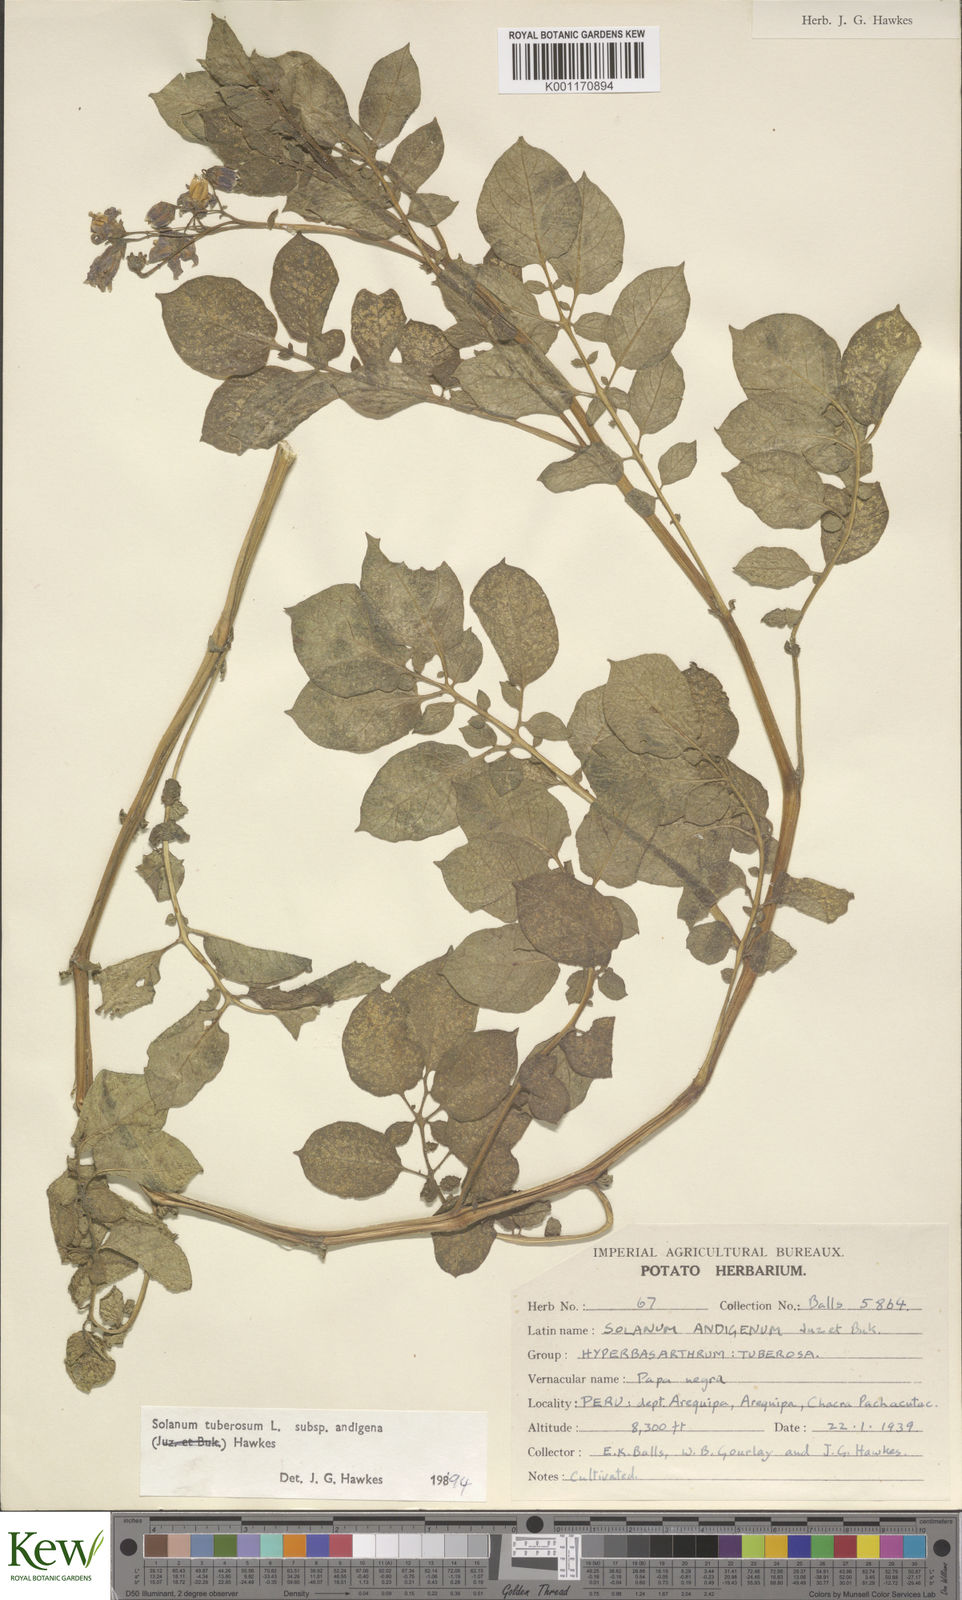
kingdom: Plantae
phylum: Tracheophyta
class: Magnoliopsida
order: Solanales
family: Solanaceae
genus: Solanum
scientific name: Solanum tuberosum
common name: Potato
